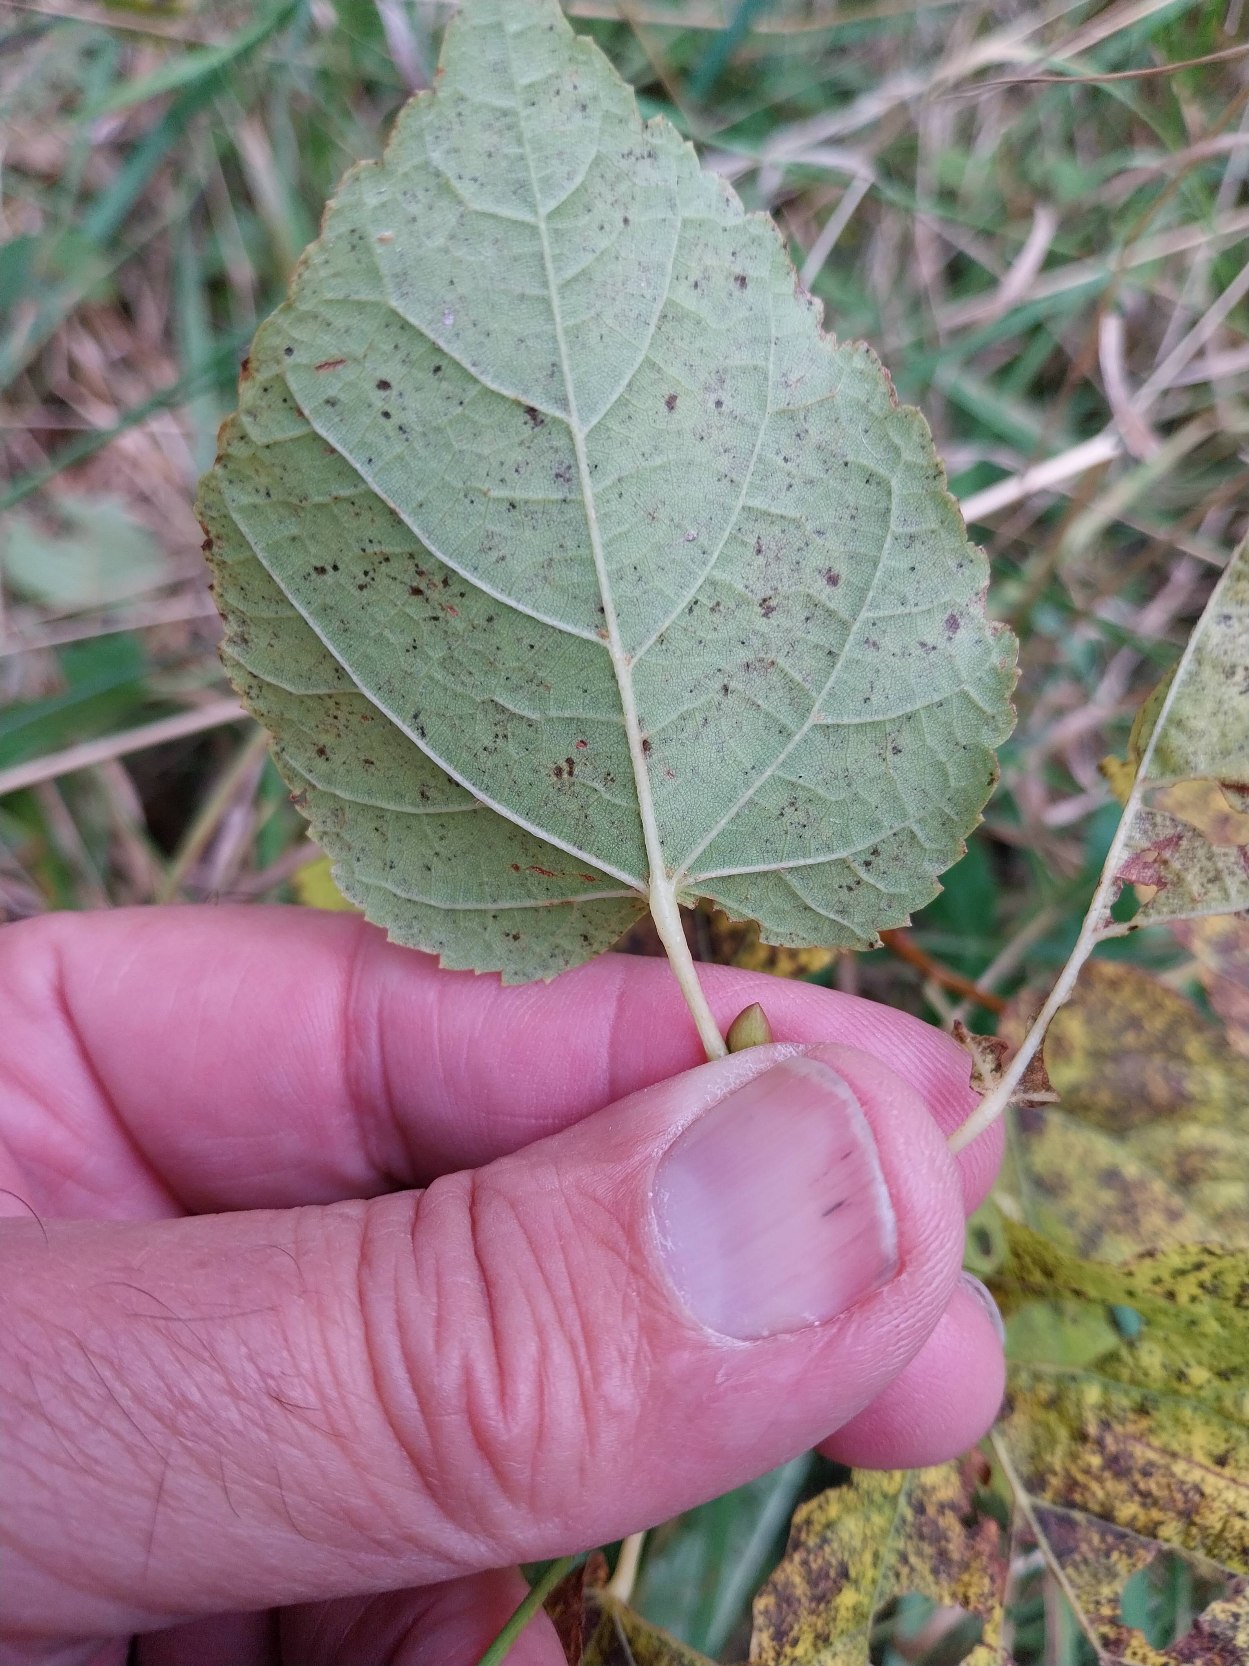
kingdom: Plantae
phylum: Tracheophyta
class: Magnoliopsida
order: Malvales
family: Malvaceae
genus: Tilia
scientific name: Tilia europaea
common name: Park-lind
